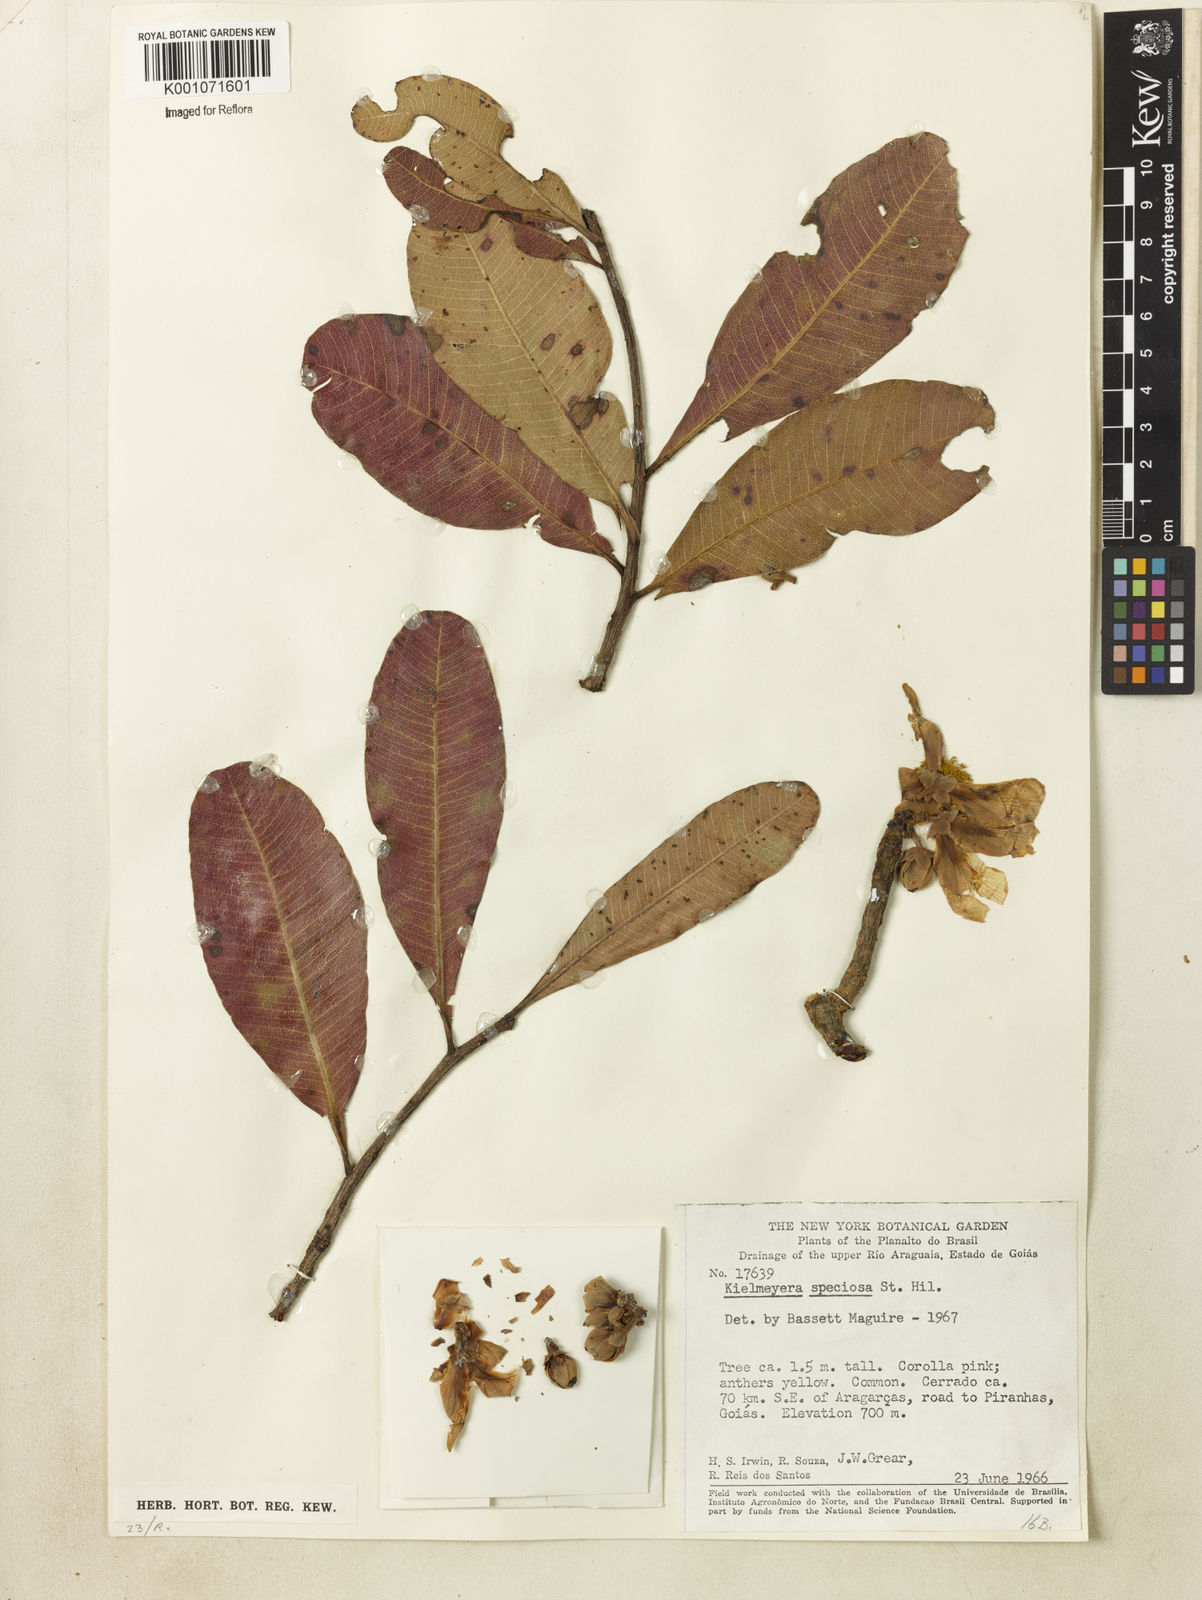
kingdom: Plantae
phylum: Tracheophyta
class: Magnoliopsida
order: Malpighiales
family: Calophyllaceae
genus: Kielmeyera
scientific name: Kielmeyera rubriflora
